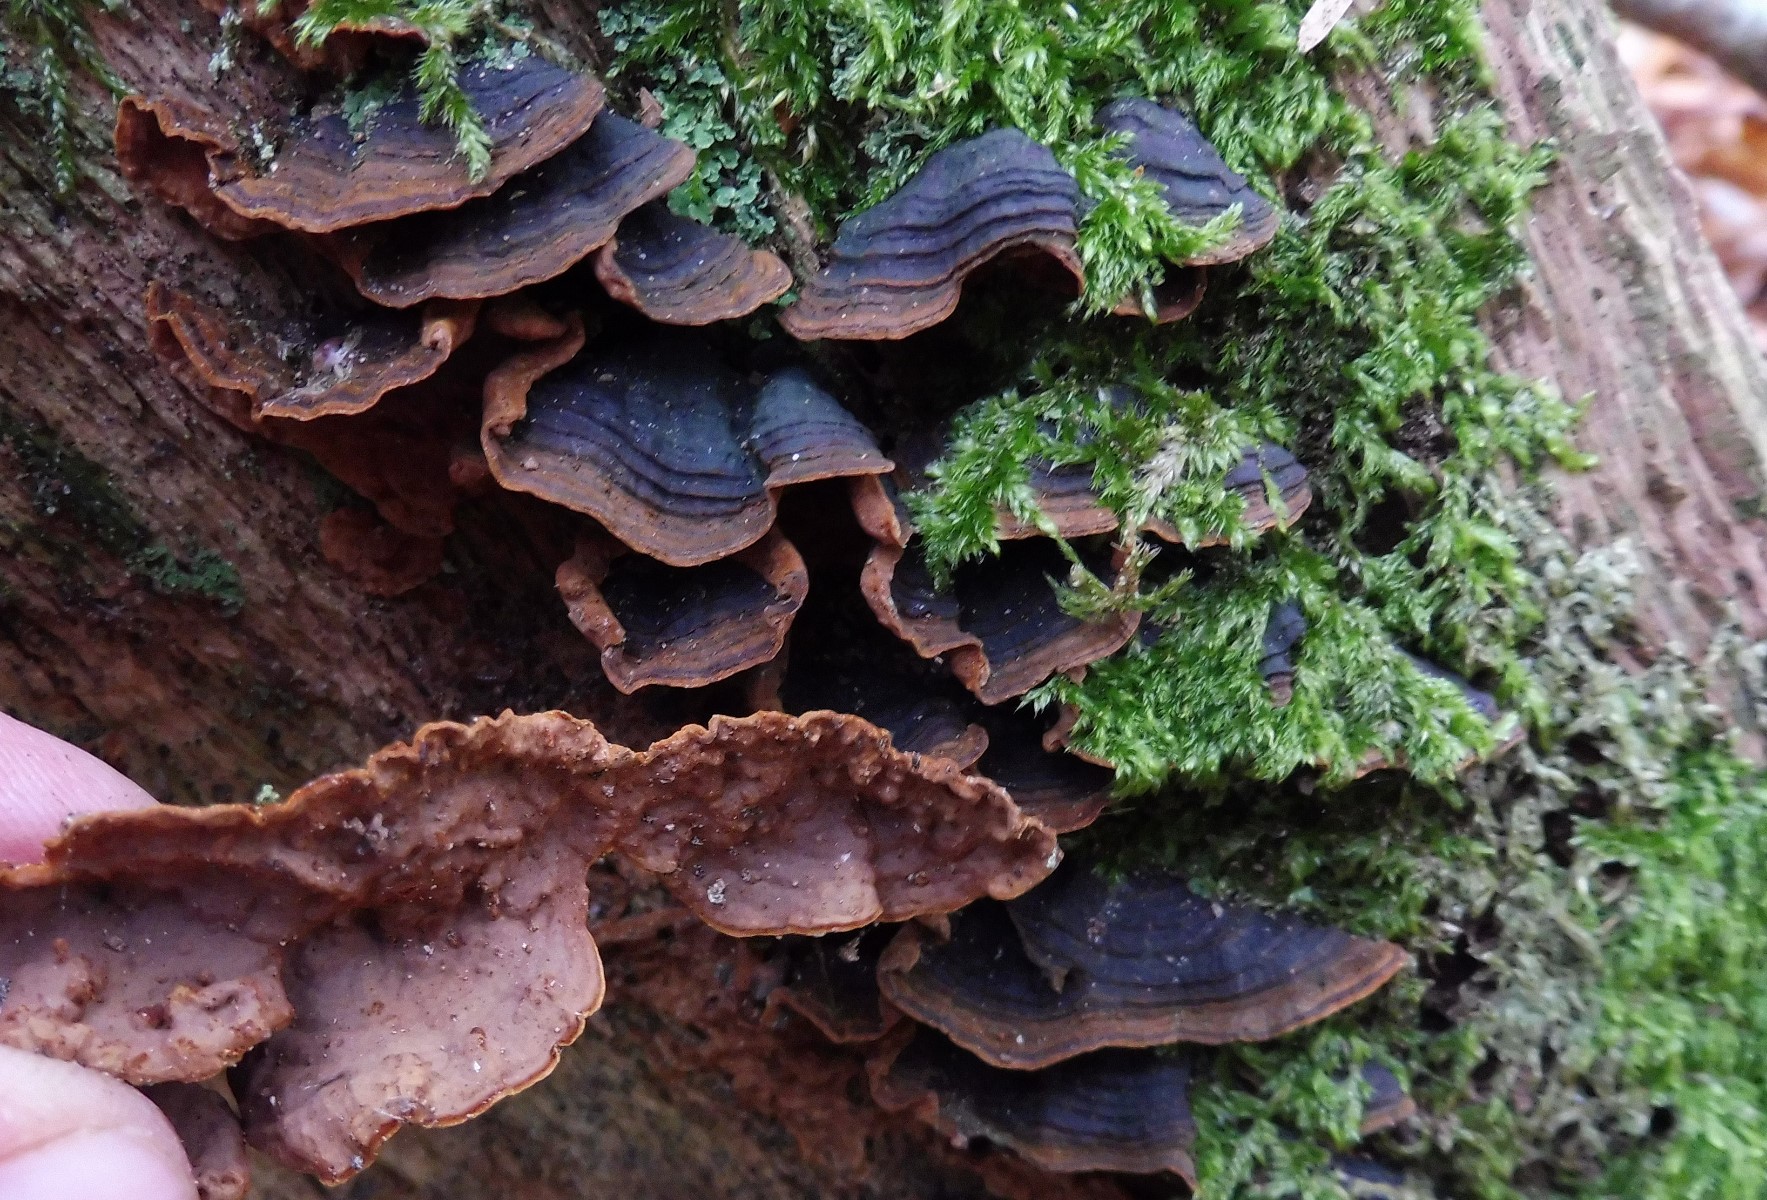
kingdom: Fungi
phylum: Basidiomycota
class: Agaricomycetes
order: Hymenochaetales
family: Hymenochaetaceae
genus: Hymenochaete
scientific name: Hymenochaete rubiginosa
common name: stiv ruslædersvamp
